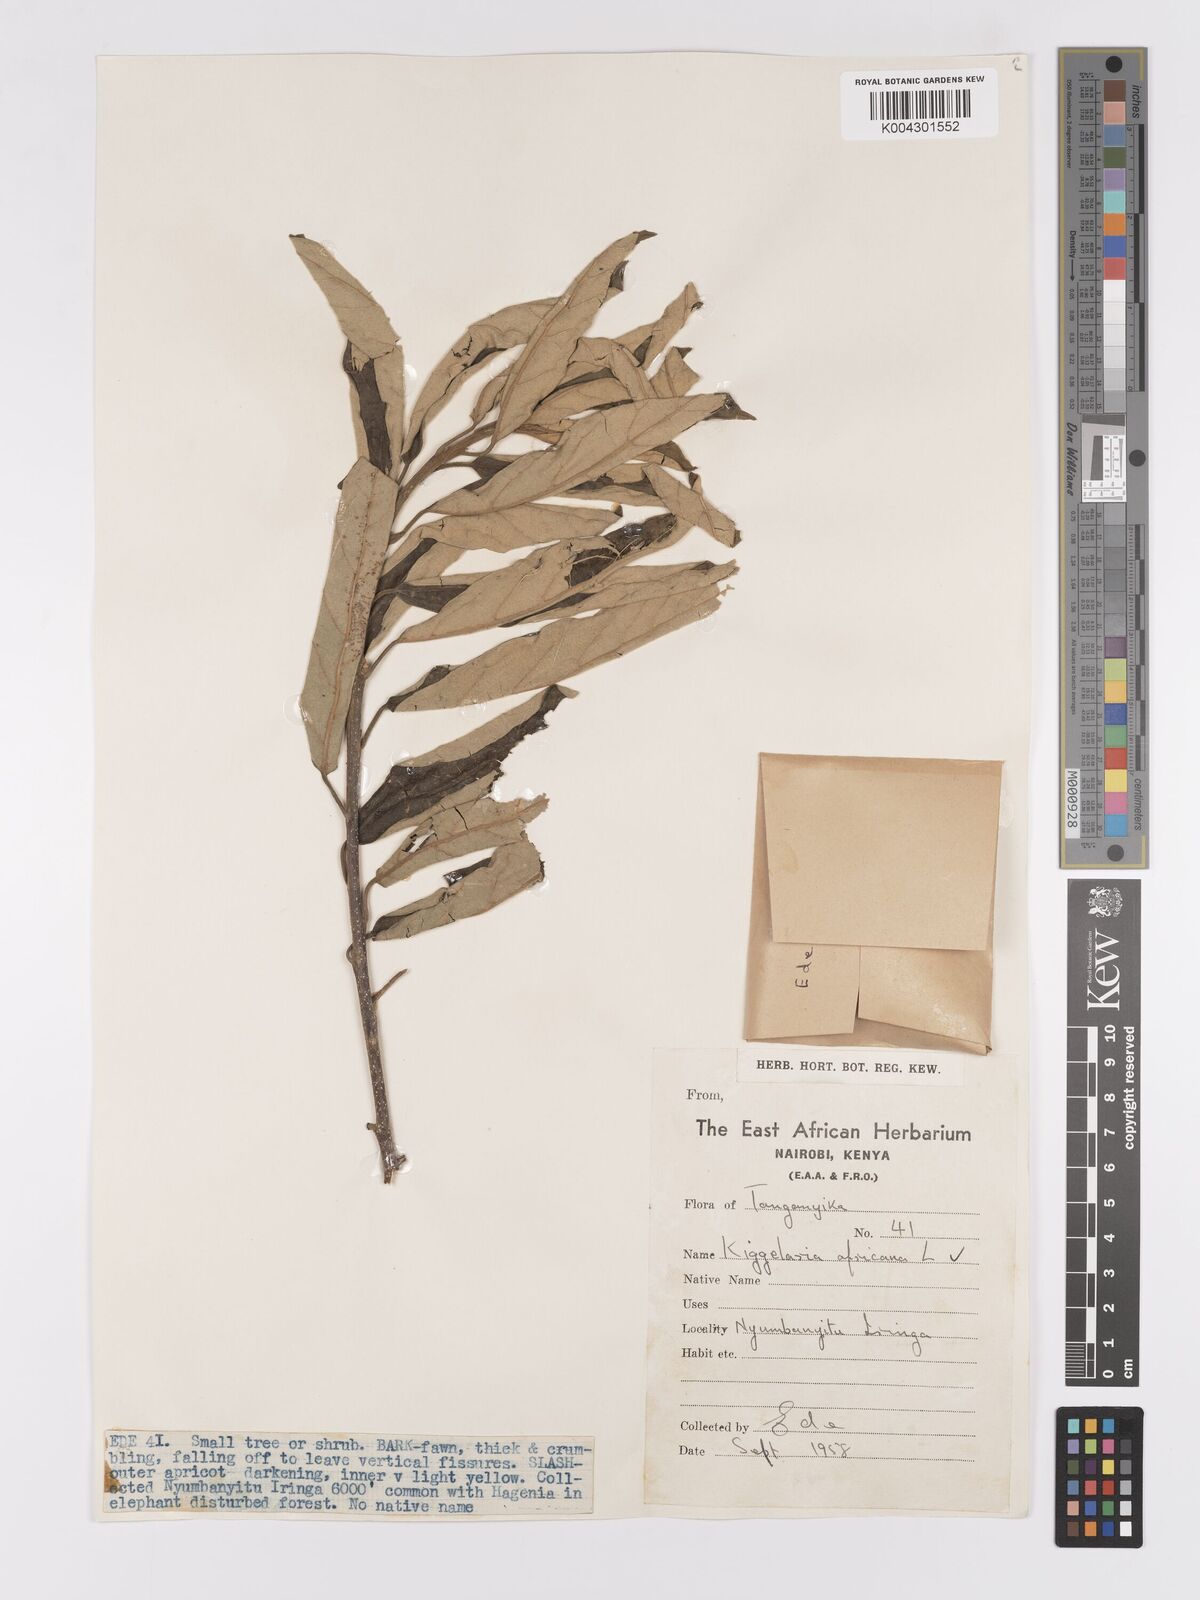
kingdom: Plantae
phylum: Tracheophyta
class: Magnoliopsida
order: Malpighiales
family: Achariaceae
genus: Kiggelaria
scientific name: Kiggelaria africana
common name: Wild peach
